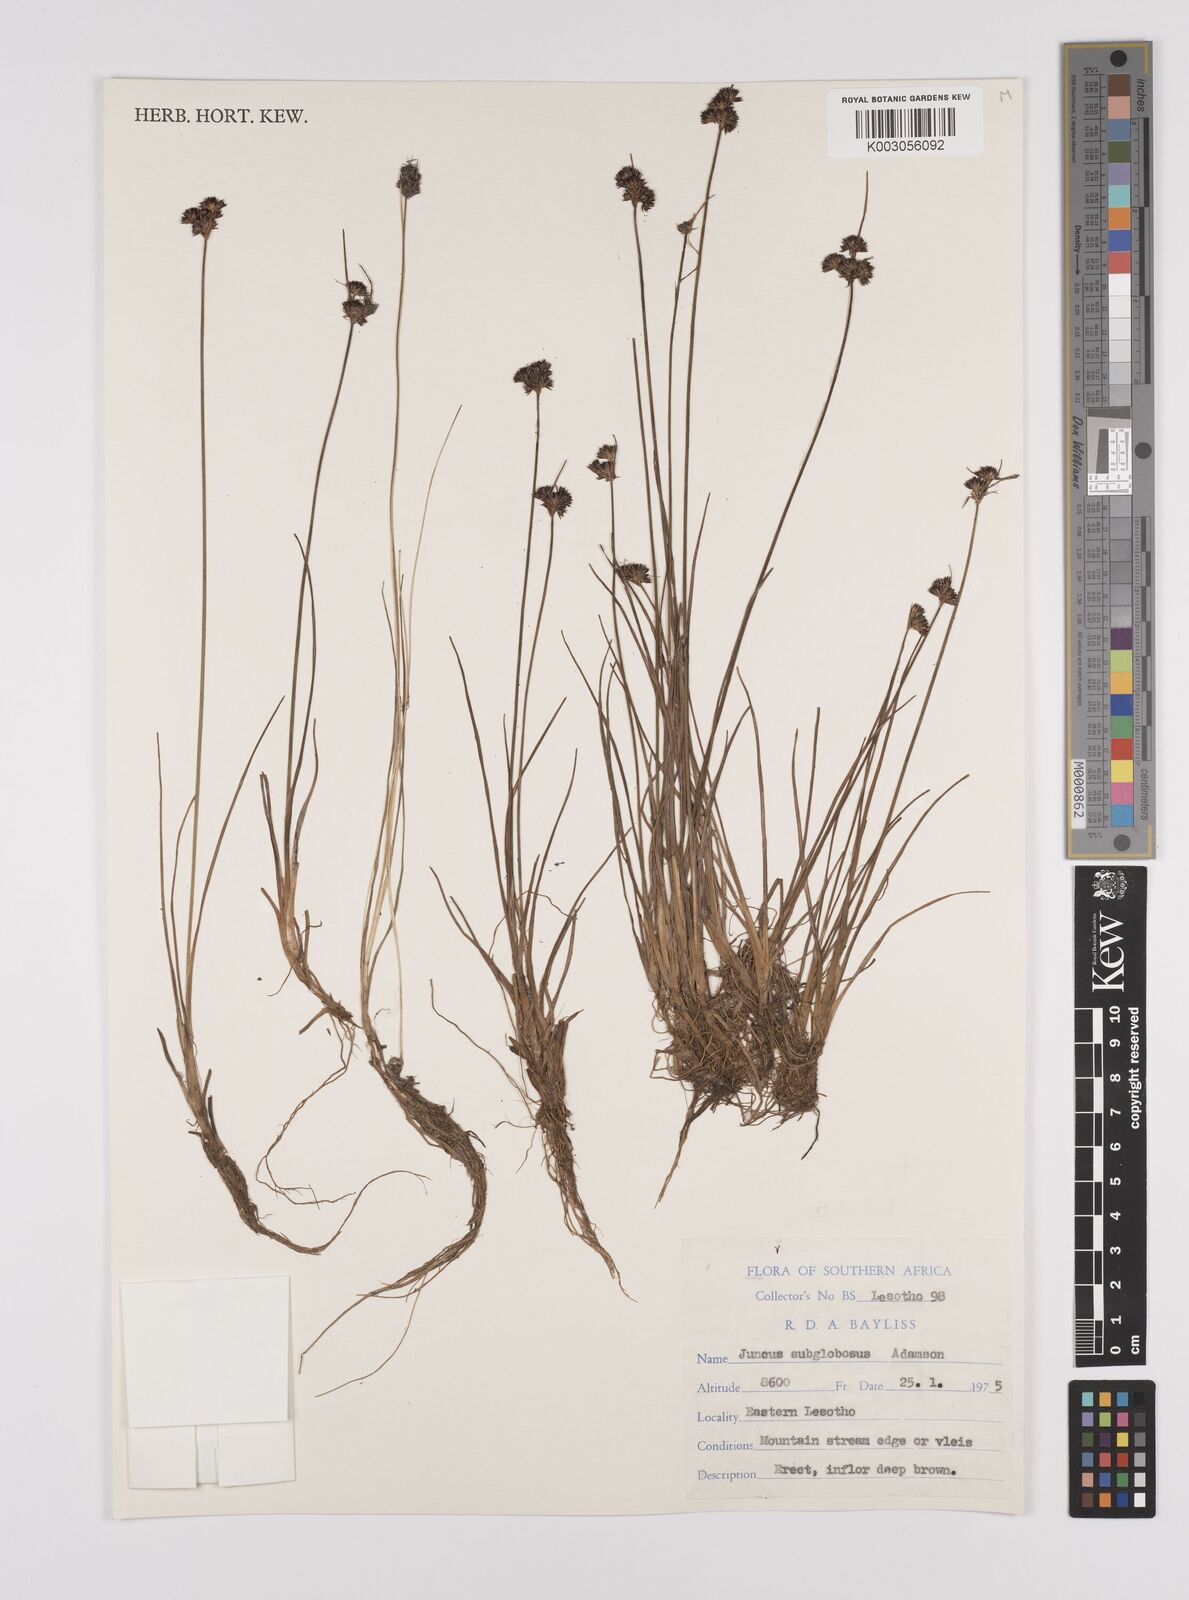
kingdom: Plantae
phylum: Tracheophyta
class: Liliopsida
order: Poales
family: Juncaceae
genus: Juncus
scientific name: Juncus dregeanus
